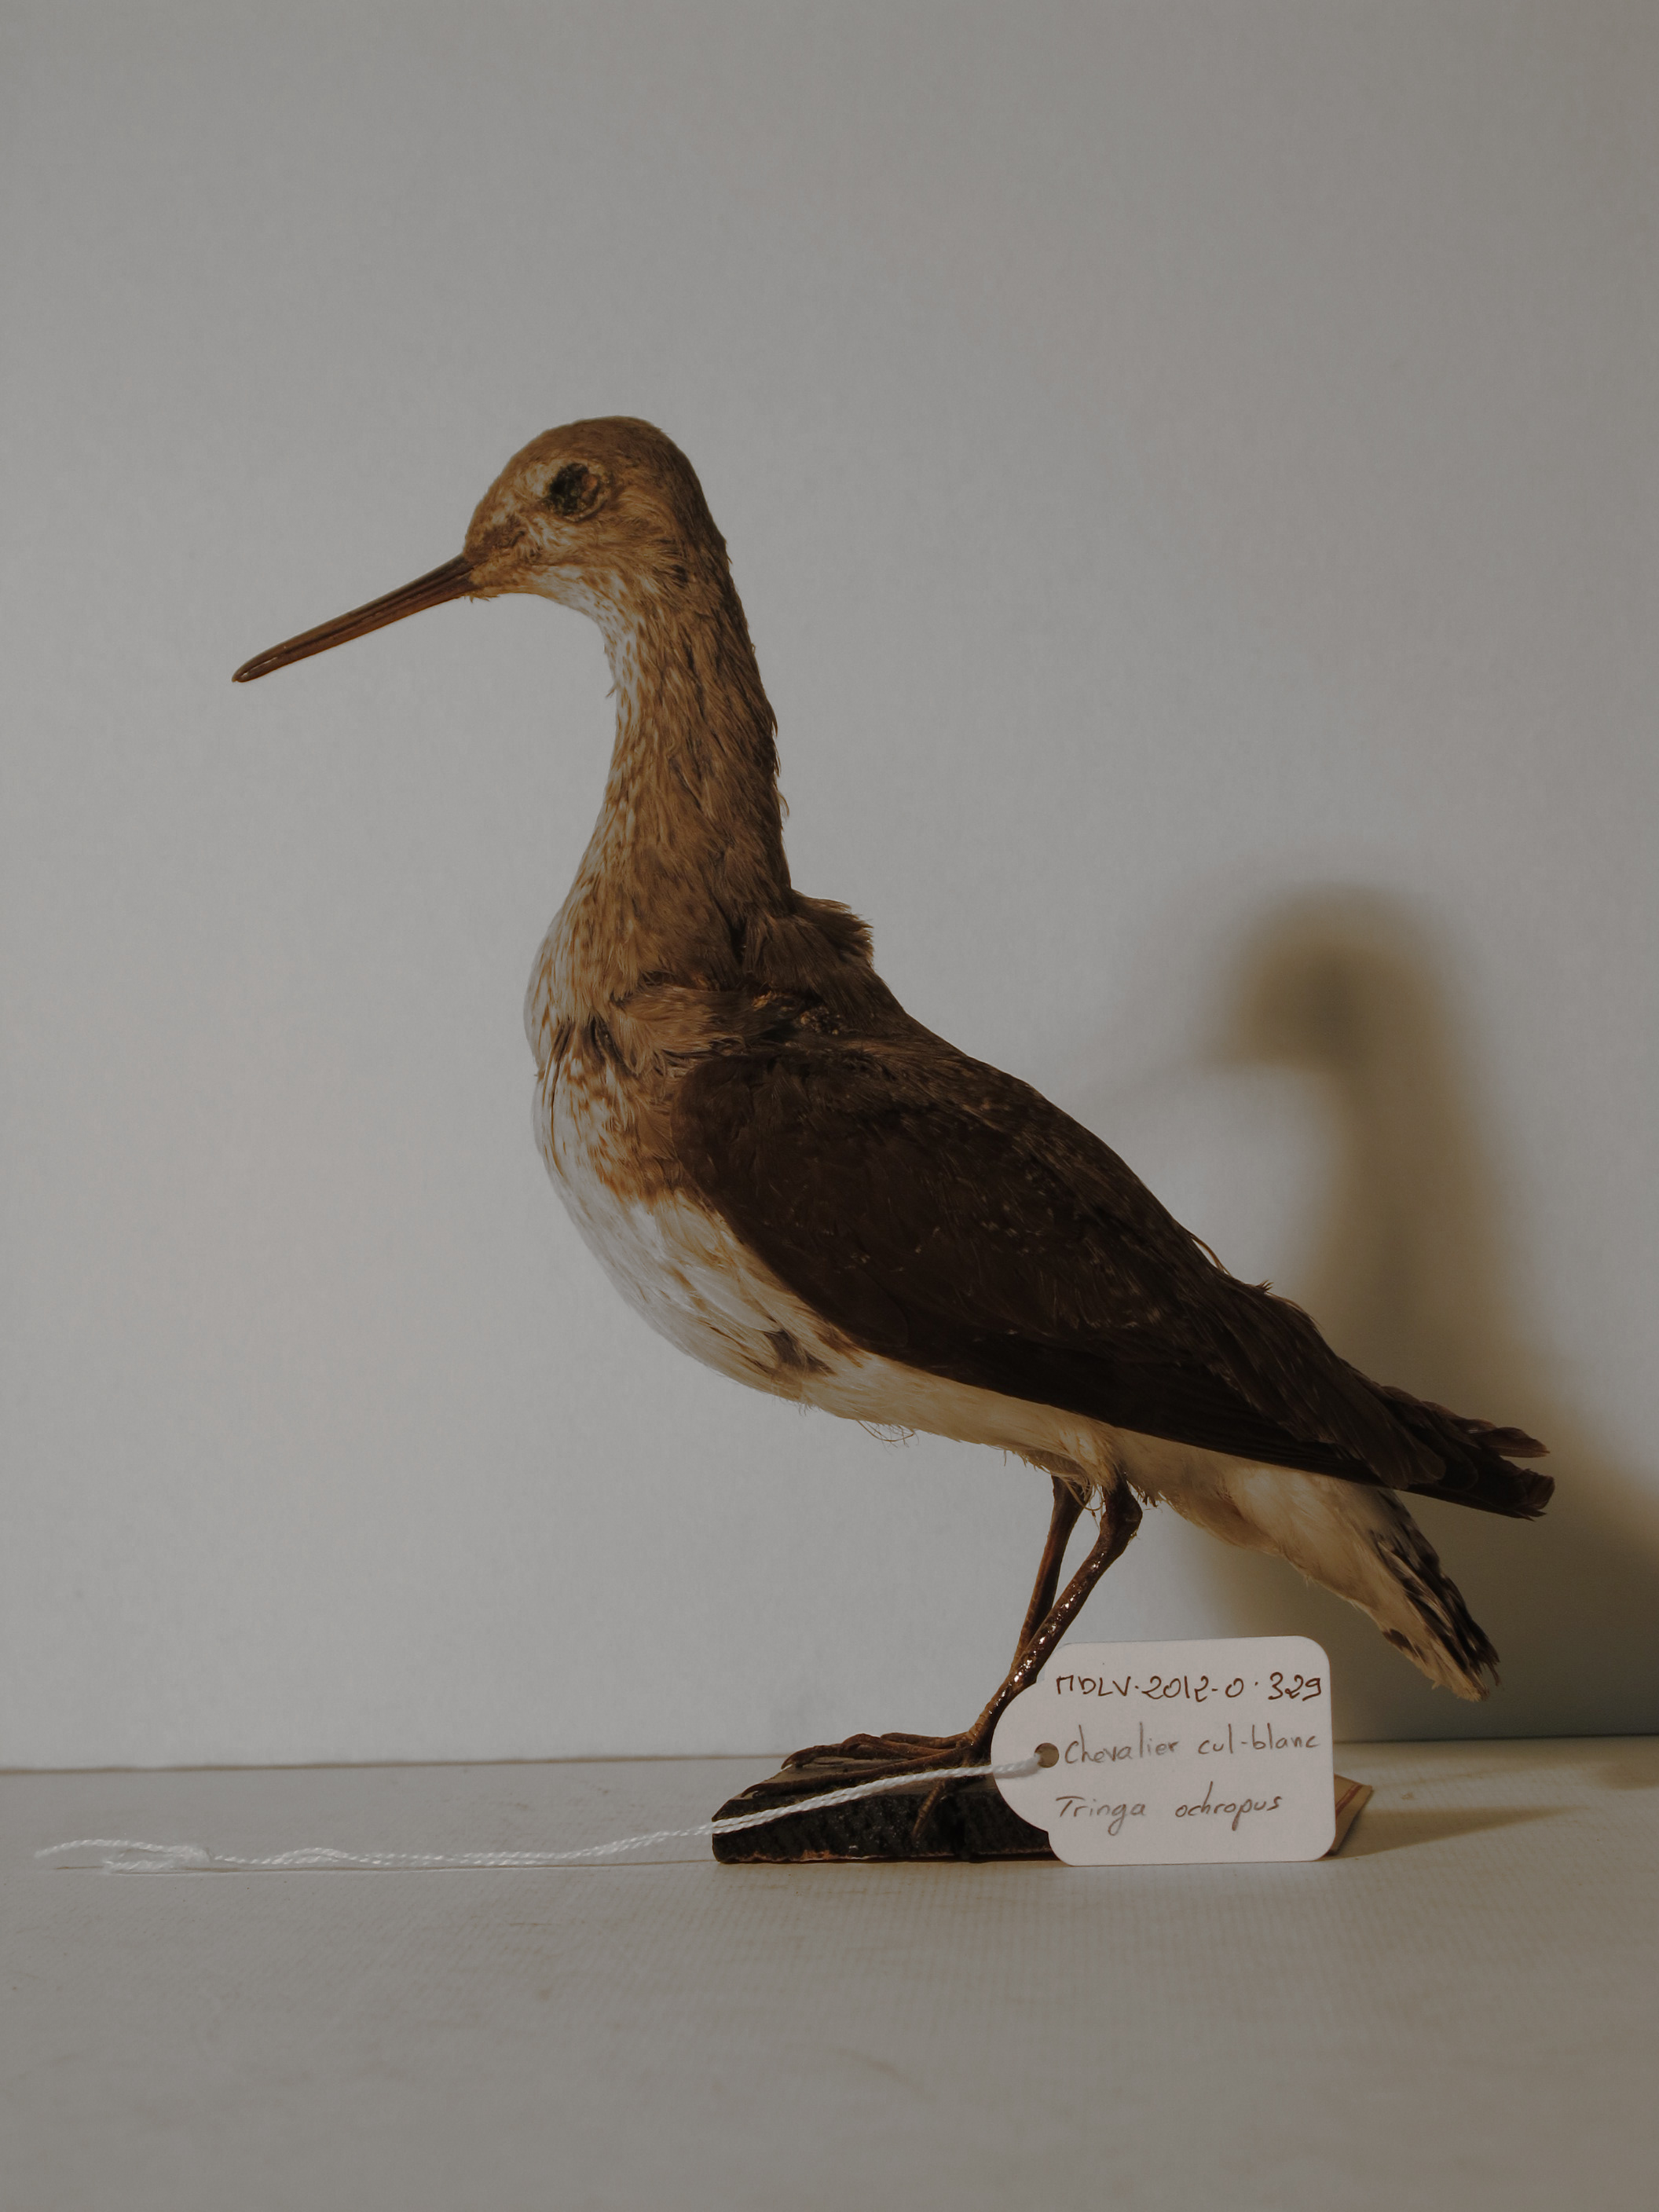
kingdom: Animalia
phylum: Chordata
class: Aves
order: Charadriiformes
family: Scolopacidae
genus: Tringa
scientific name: Tringa ochropus
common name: Green Sandpiper
